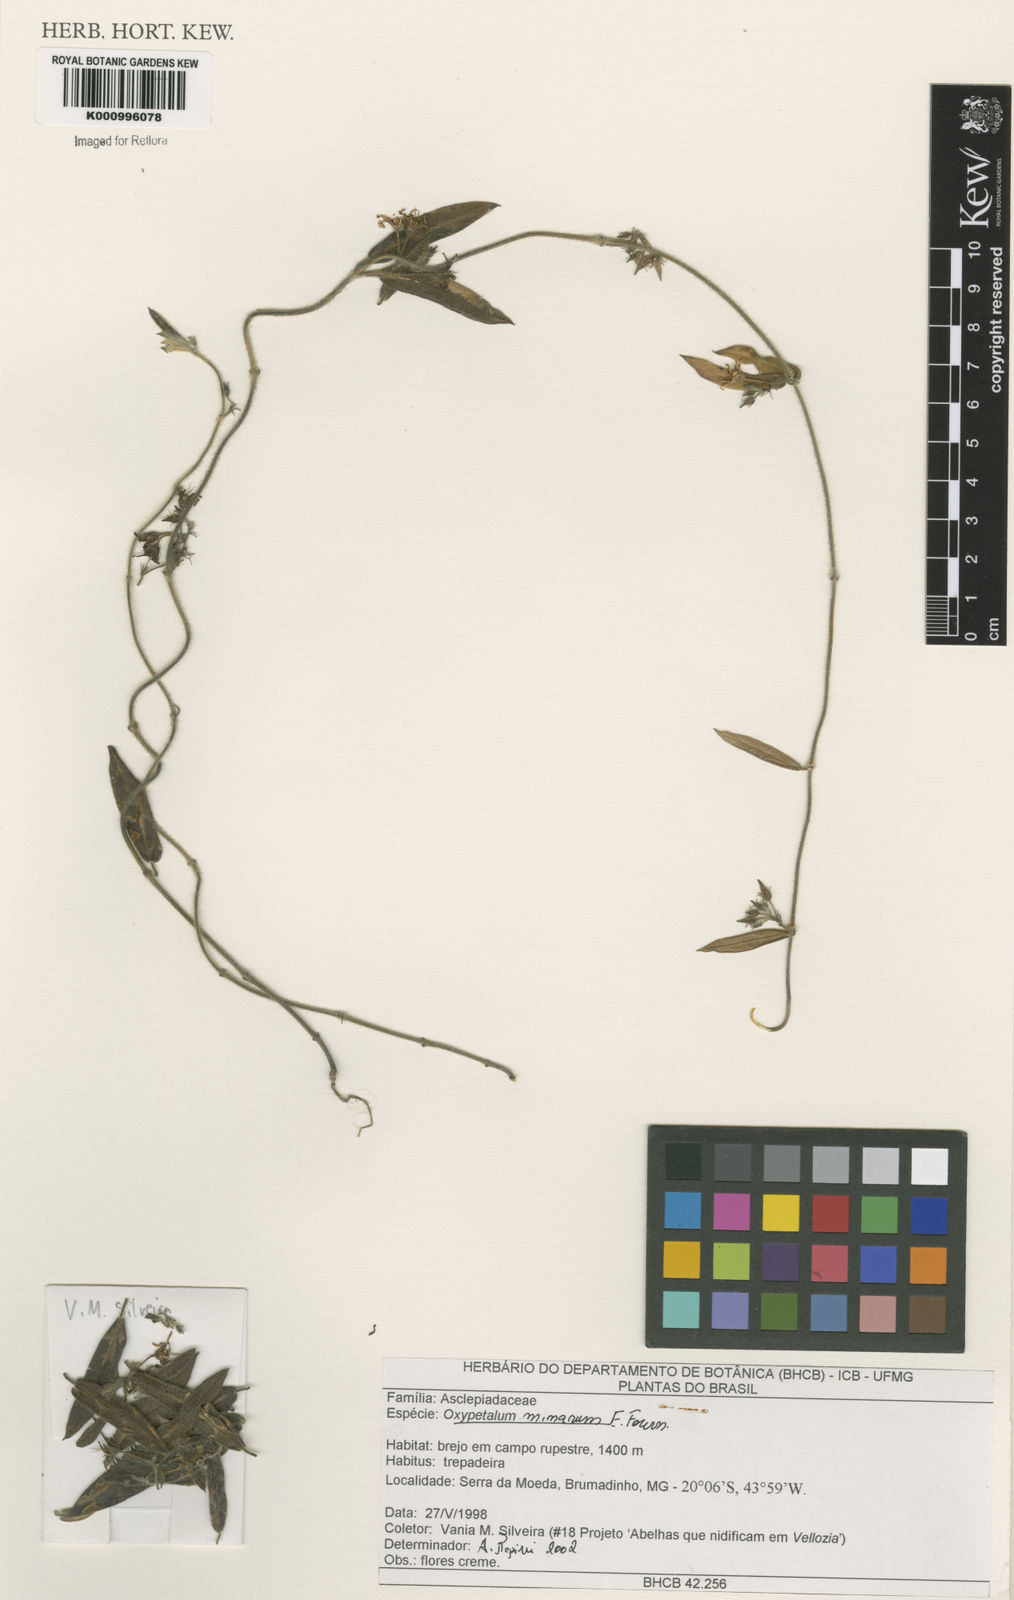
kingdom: Plantae
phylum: Tracheophyta
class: Magnoliopsida
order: Gentianales
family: Apocynaceae
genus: Oxypetalum
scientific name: Oxypetalum minarum
